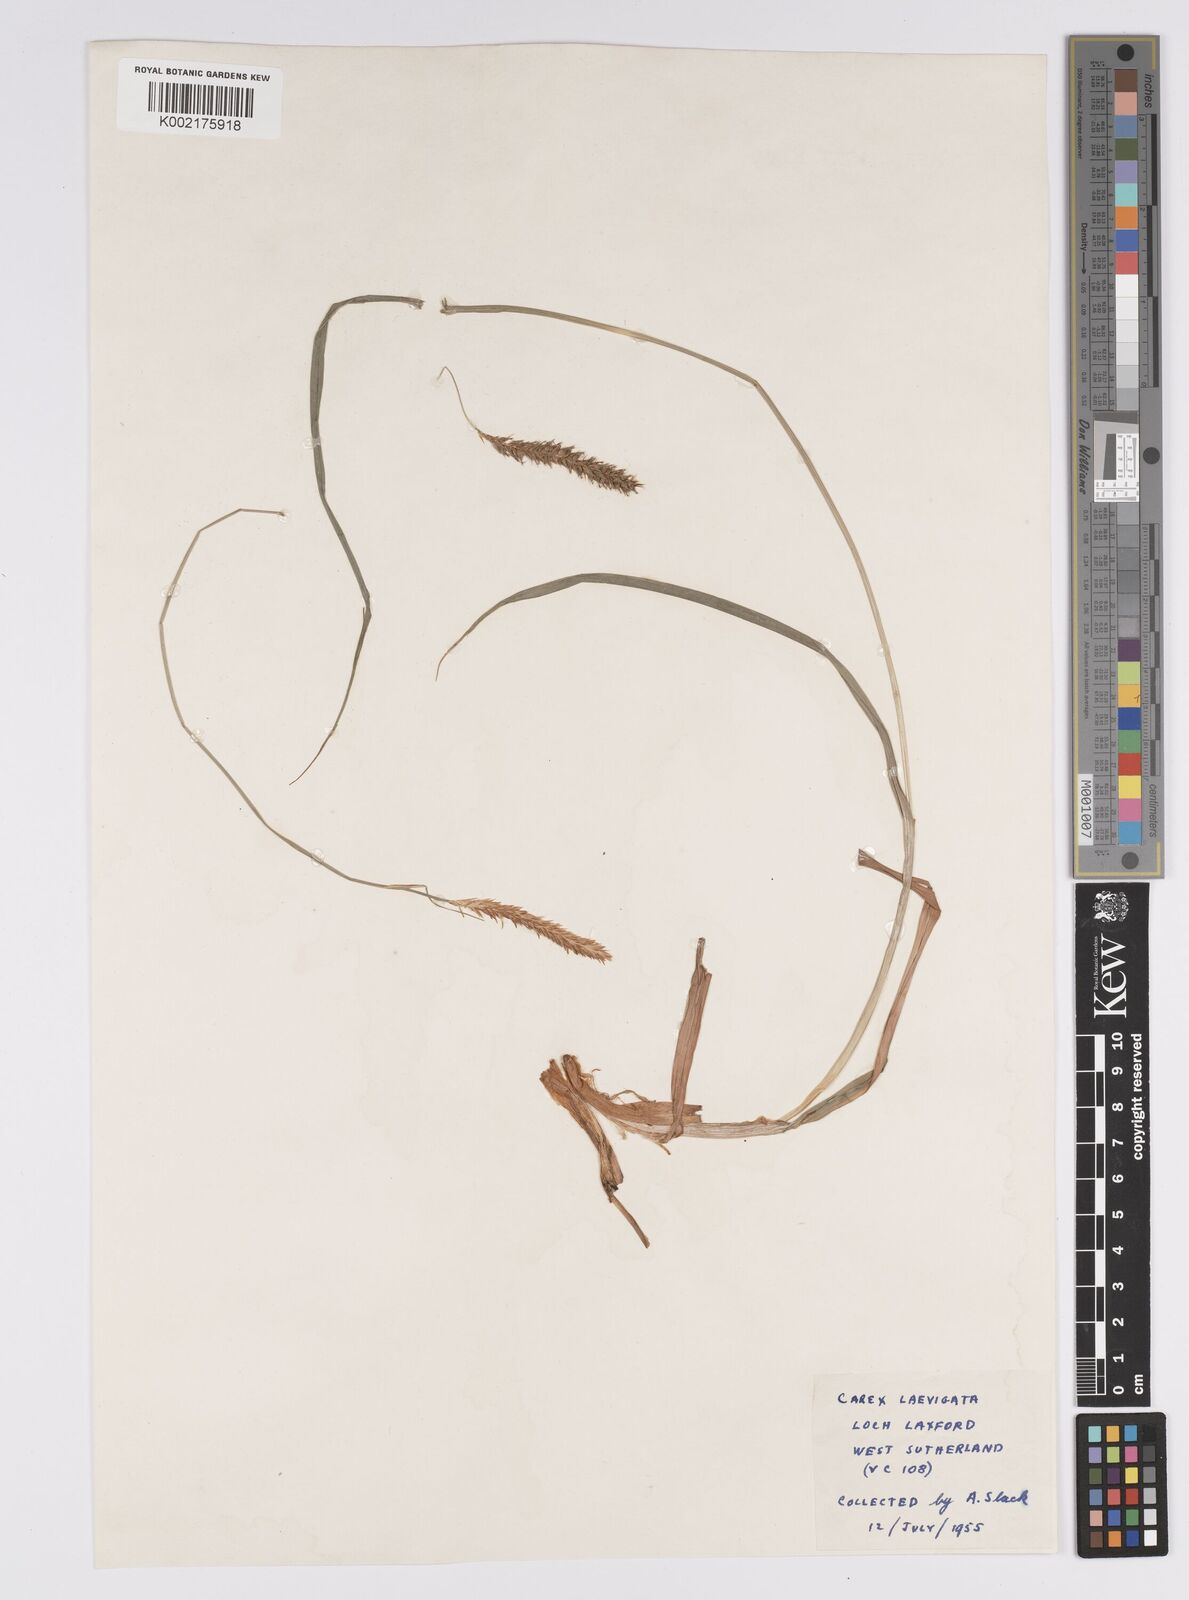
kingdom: Plantae
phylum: Tracheophyta
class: Liliopsida
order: Poales
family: Cyperaceae
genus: Carex
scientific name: Carex laevigata
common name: Smooth-stalked sedge
